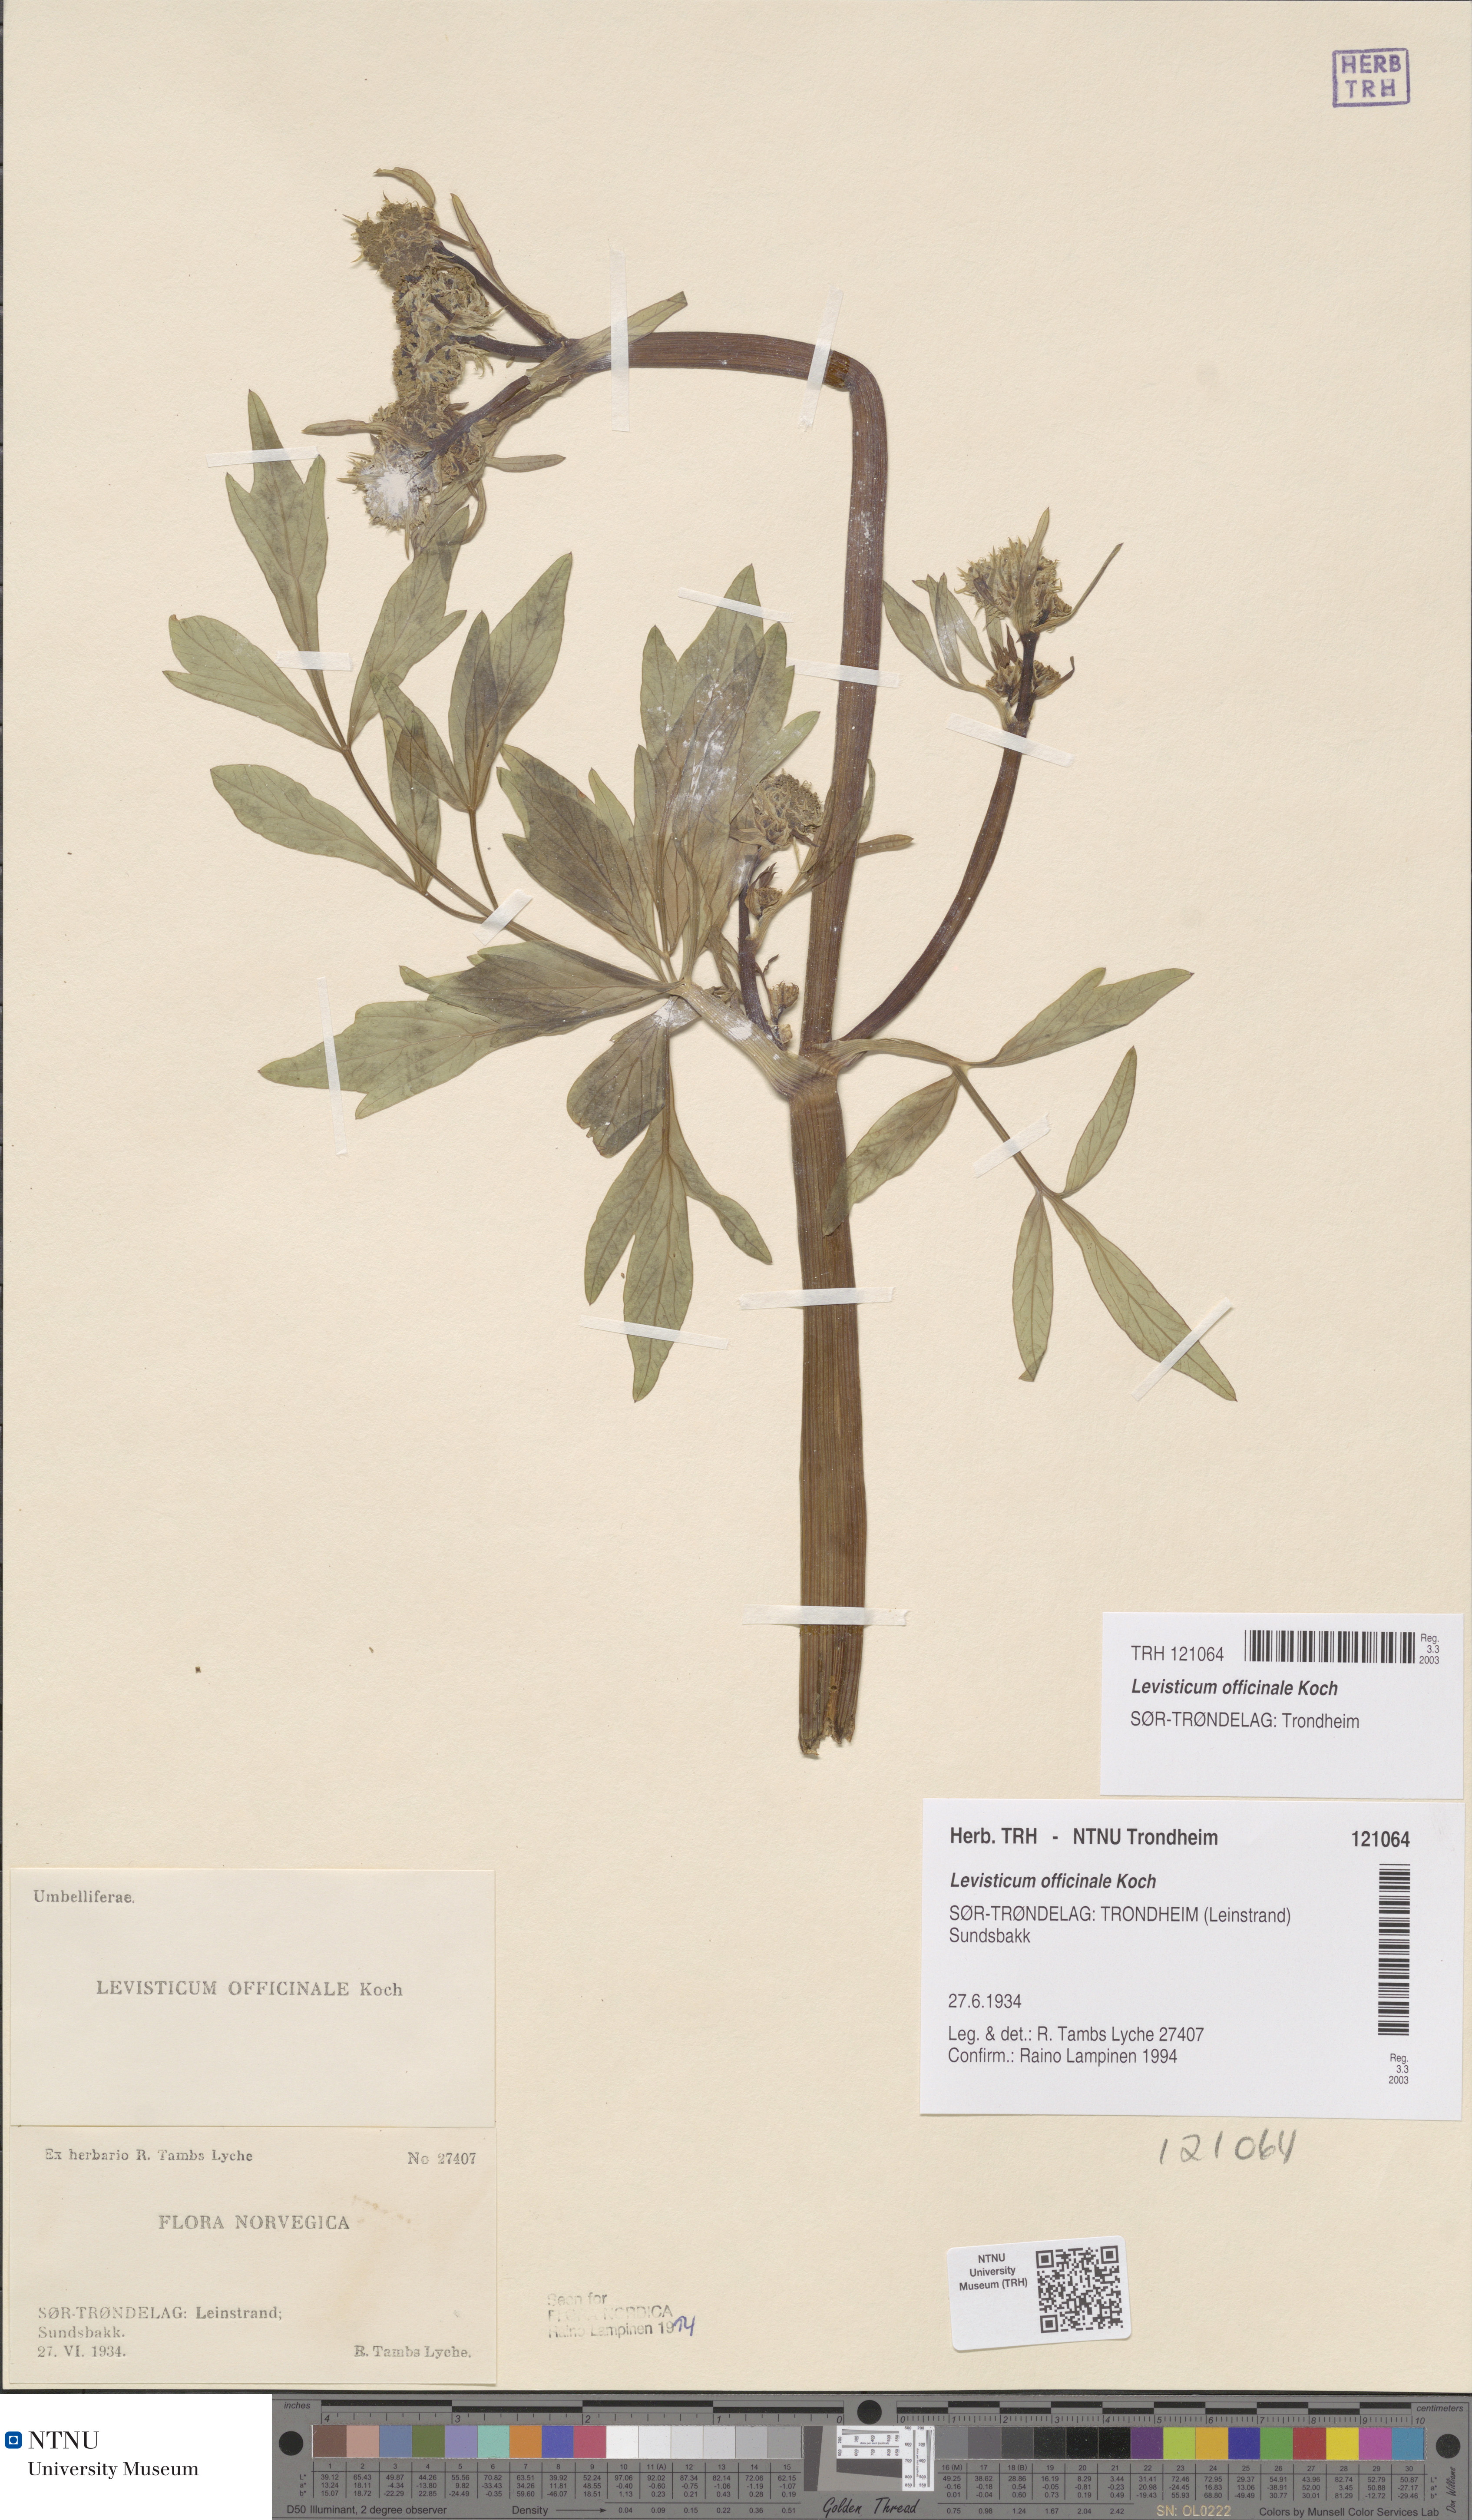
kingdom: Plantae
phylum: Tracheophyta
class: Magnoliopsida
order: Apiales
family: Apiaceae
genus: Levisticum
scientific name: Levisticum officinale
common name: Lovage
